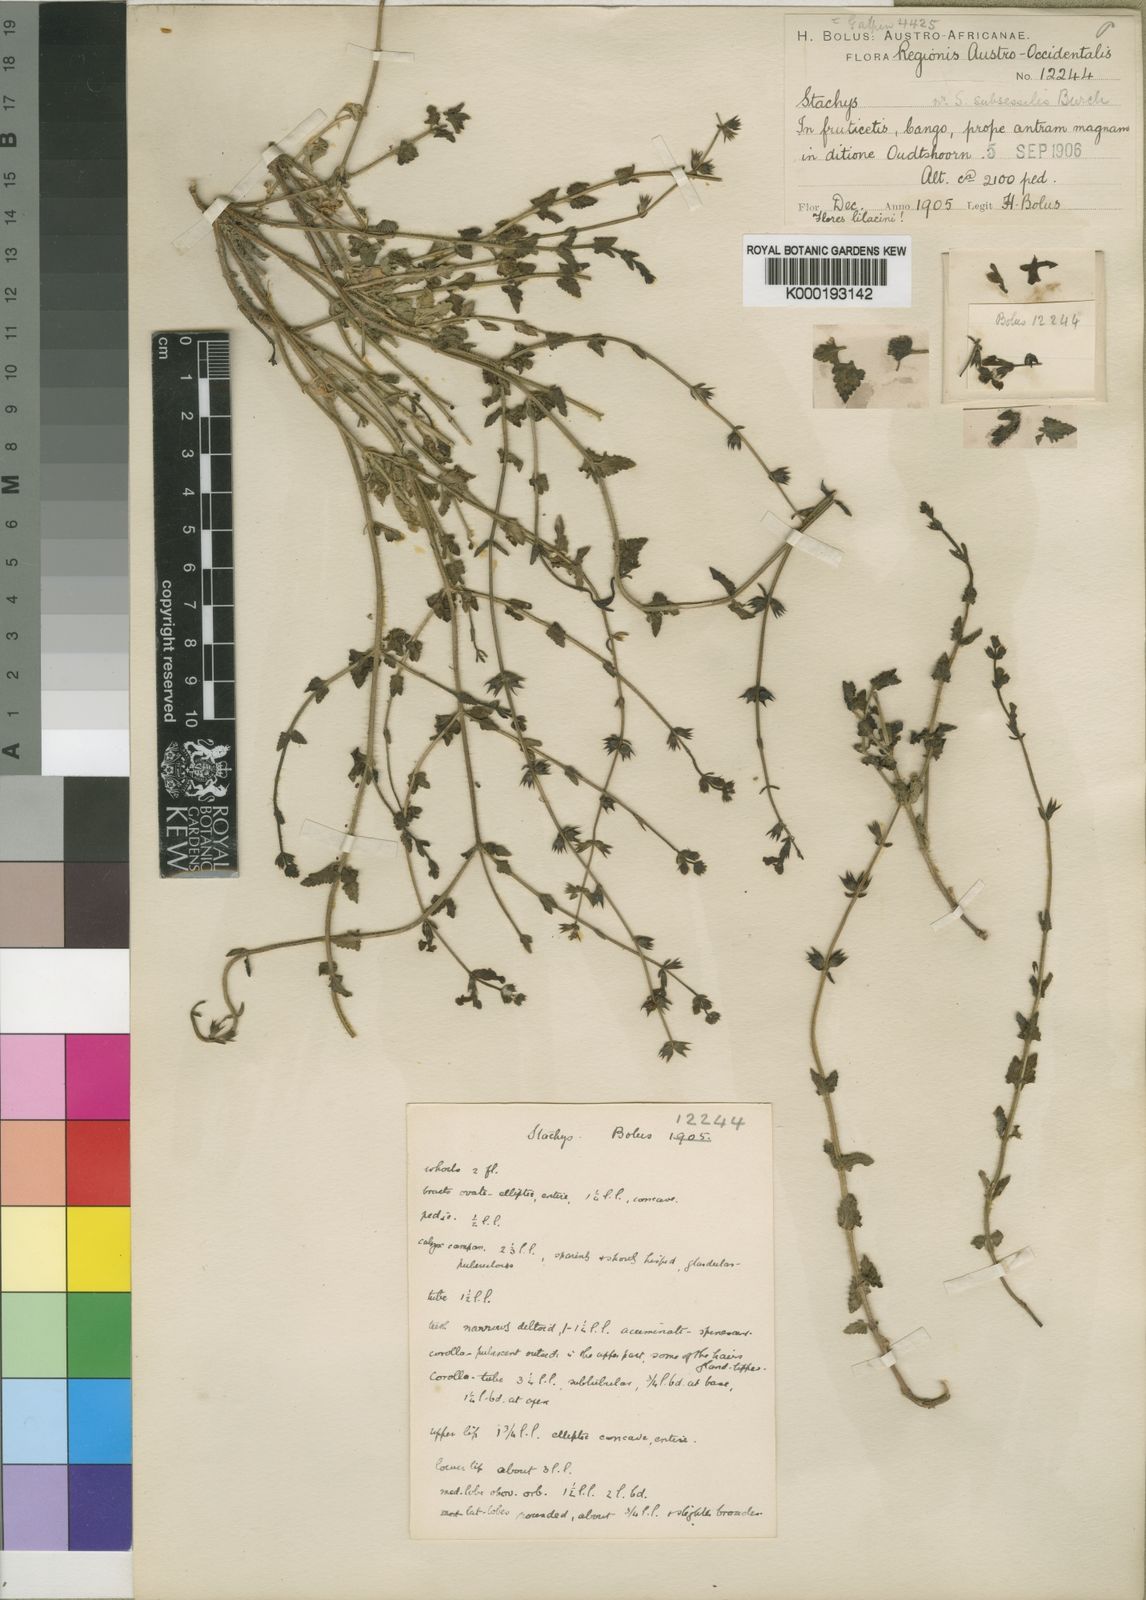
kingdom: Plantae
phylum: Tracheophyta
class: Magnoliopsida
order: Lamiales
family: Lamiaceae
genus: Stachys
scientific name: Stachys sublobata
